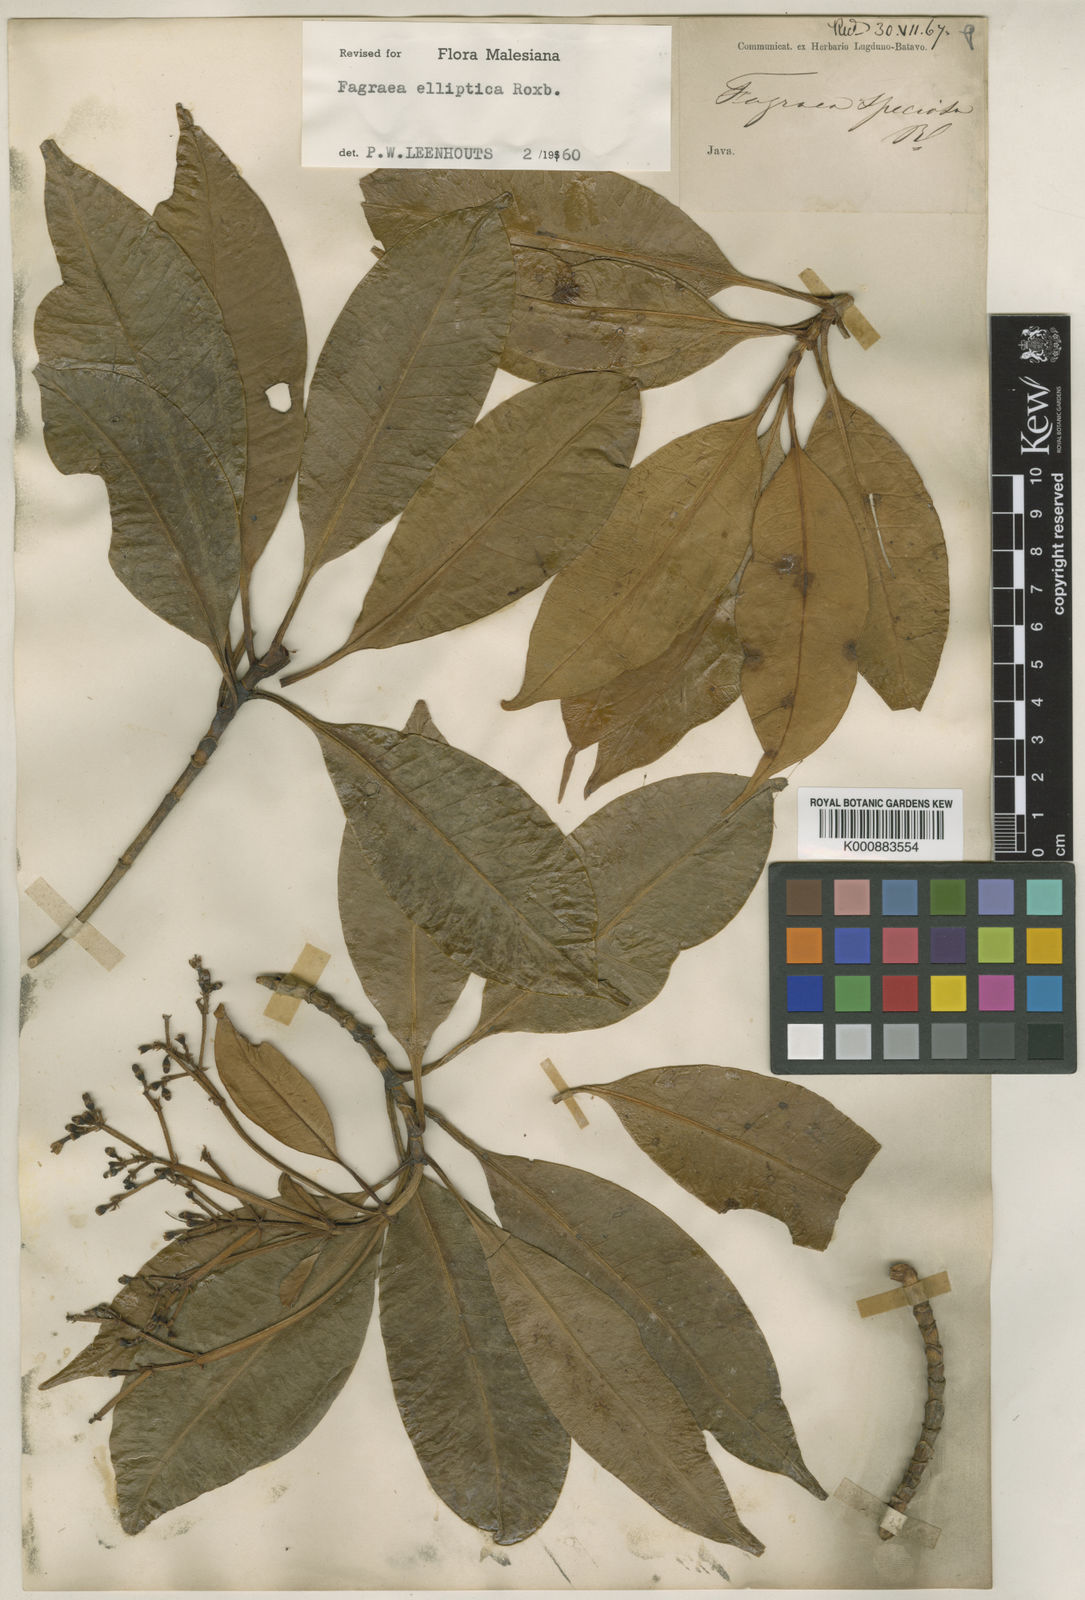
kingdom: Plantae
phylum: Tracheophyta
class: Magnoliopsida
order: Gentianales
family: Gentianaceae
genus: Picrophloeus
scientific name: Picrophloeus javanensis
